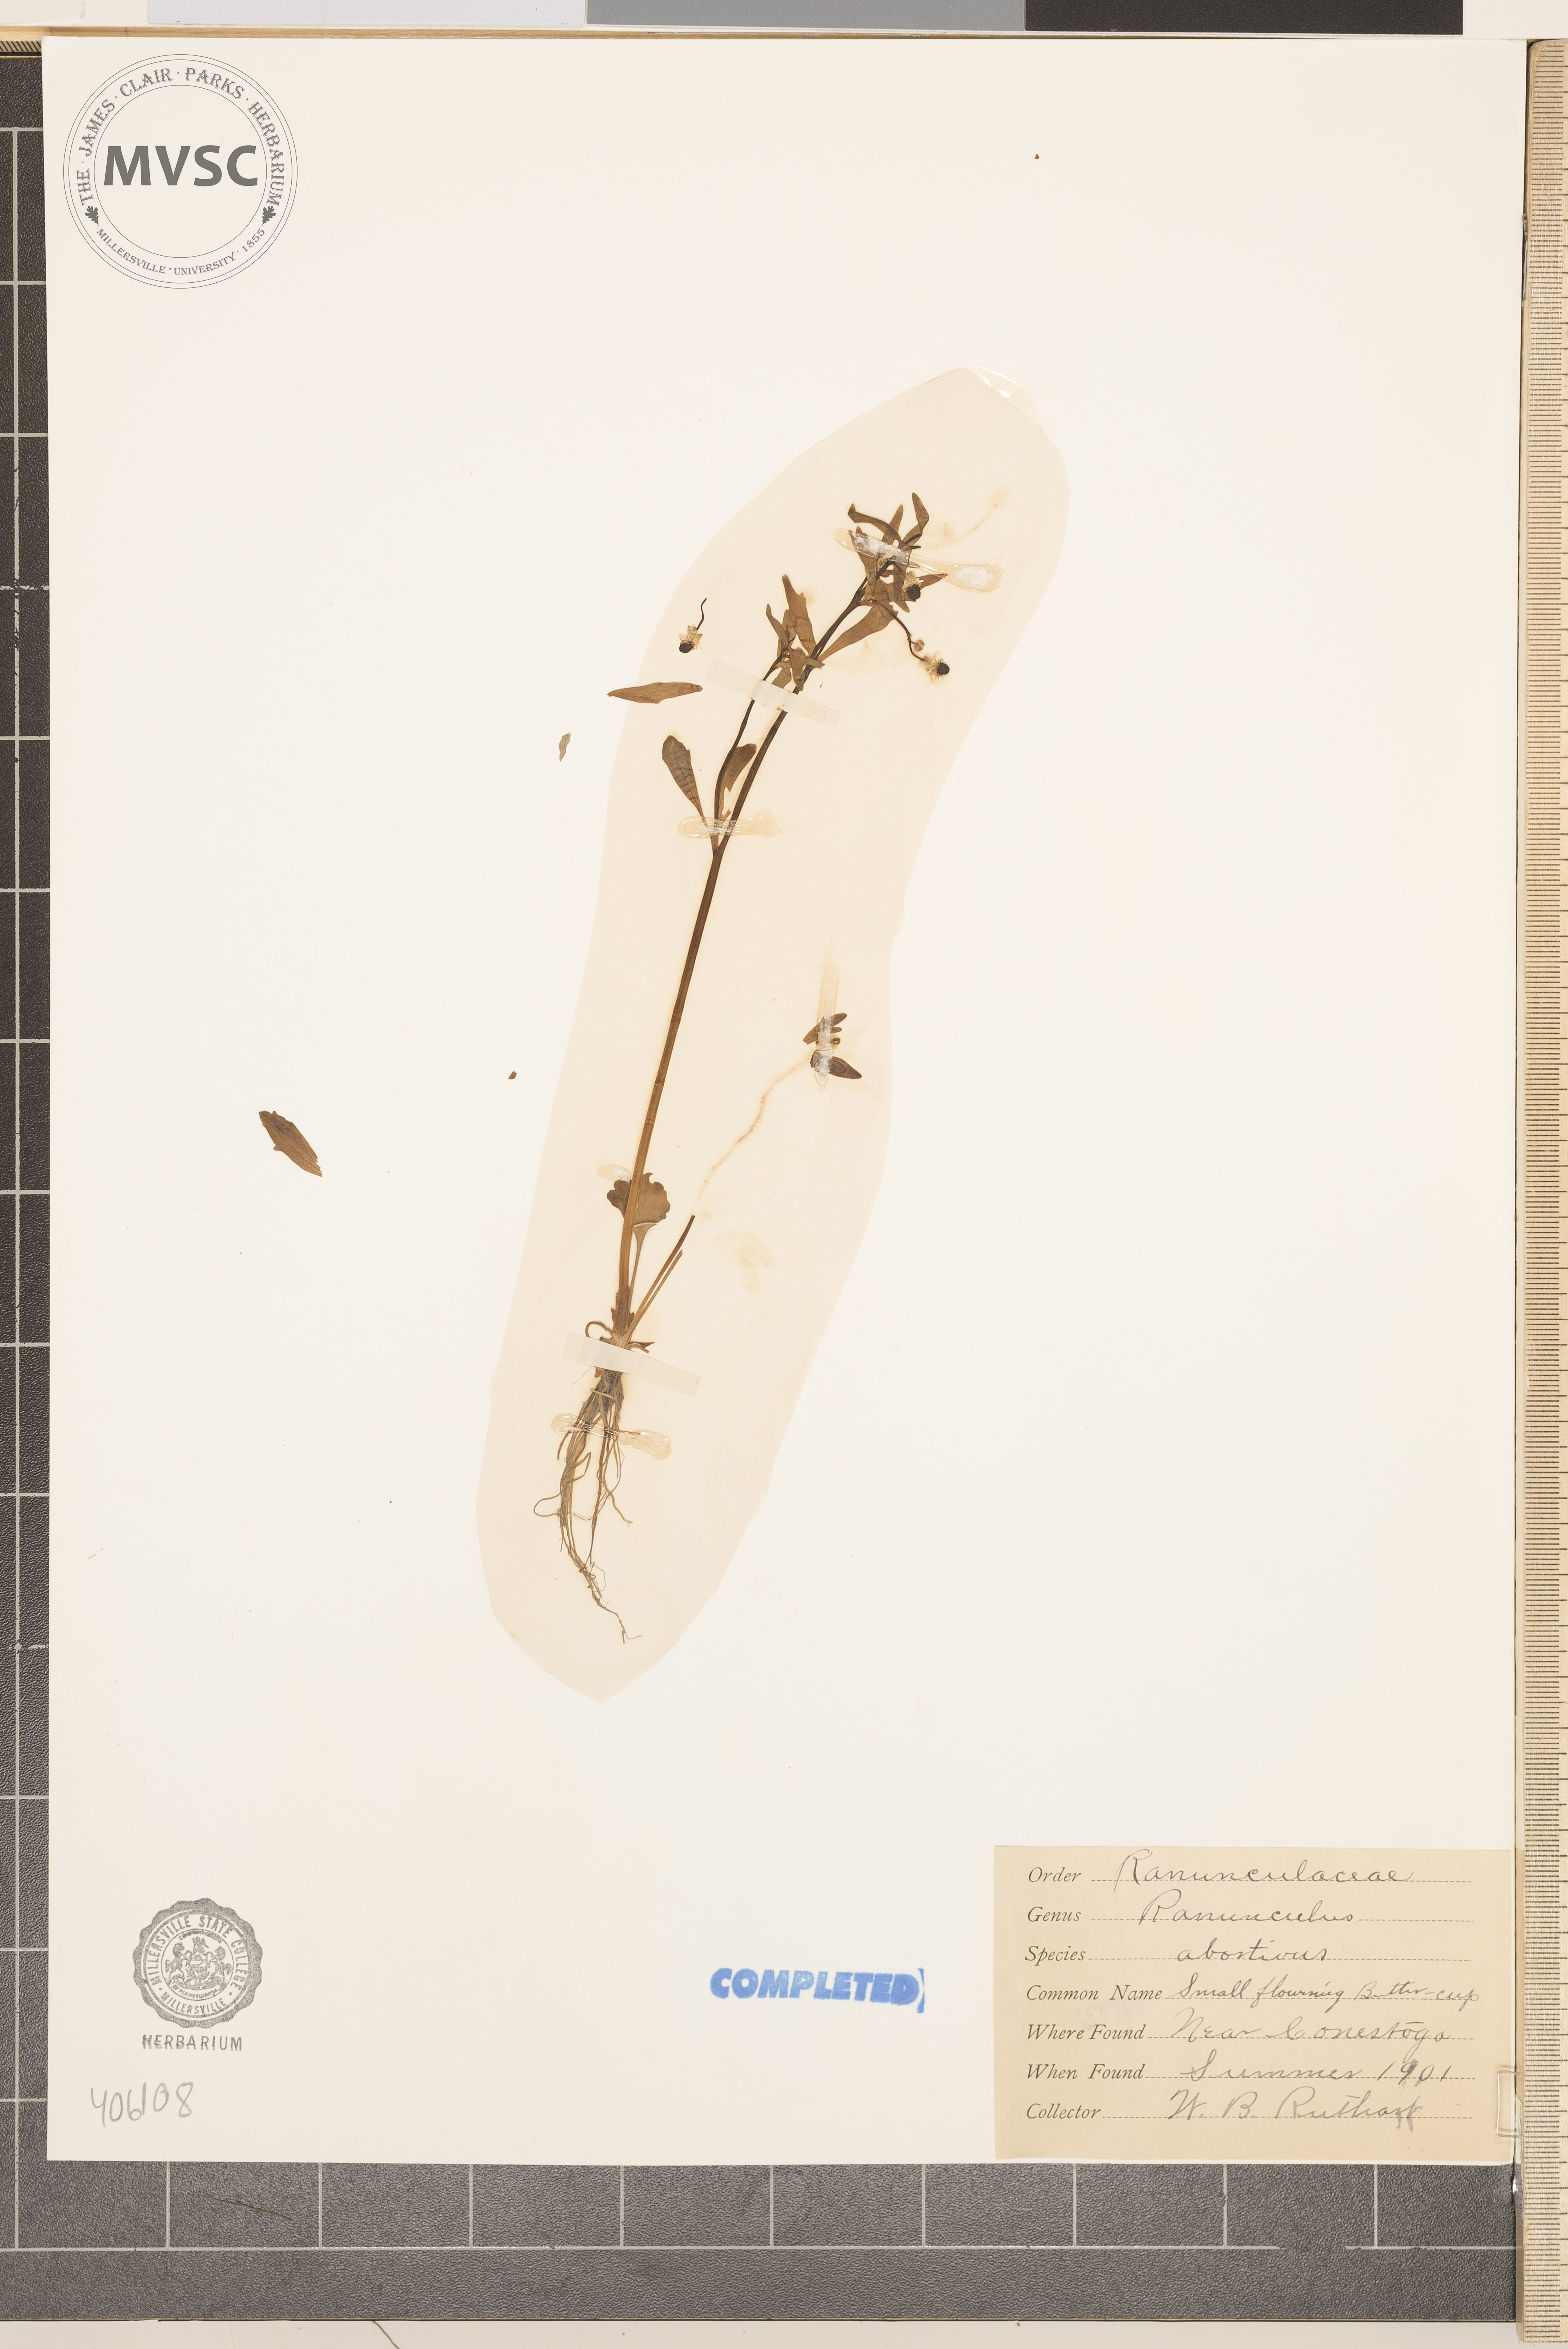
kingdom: Plantae
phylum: Tracheophyta
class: Magnoliopsida
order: Ranunculales
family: Ranunculaceae
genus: Ranunculus
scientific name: Ranunculus abortivus
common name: Early wood buttercup
